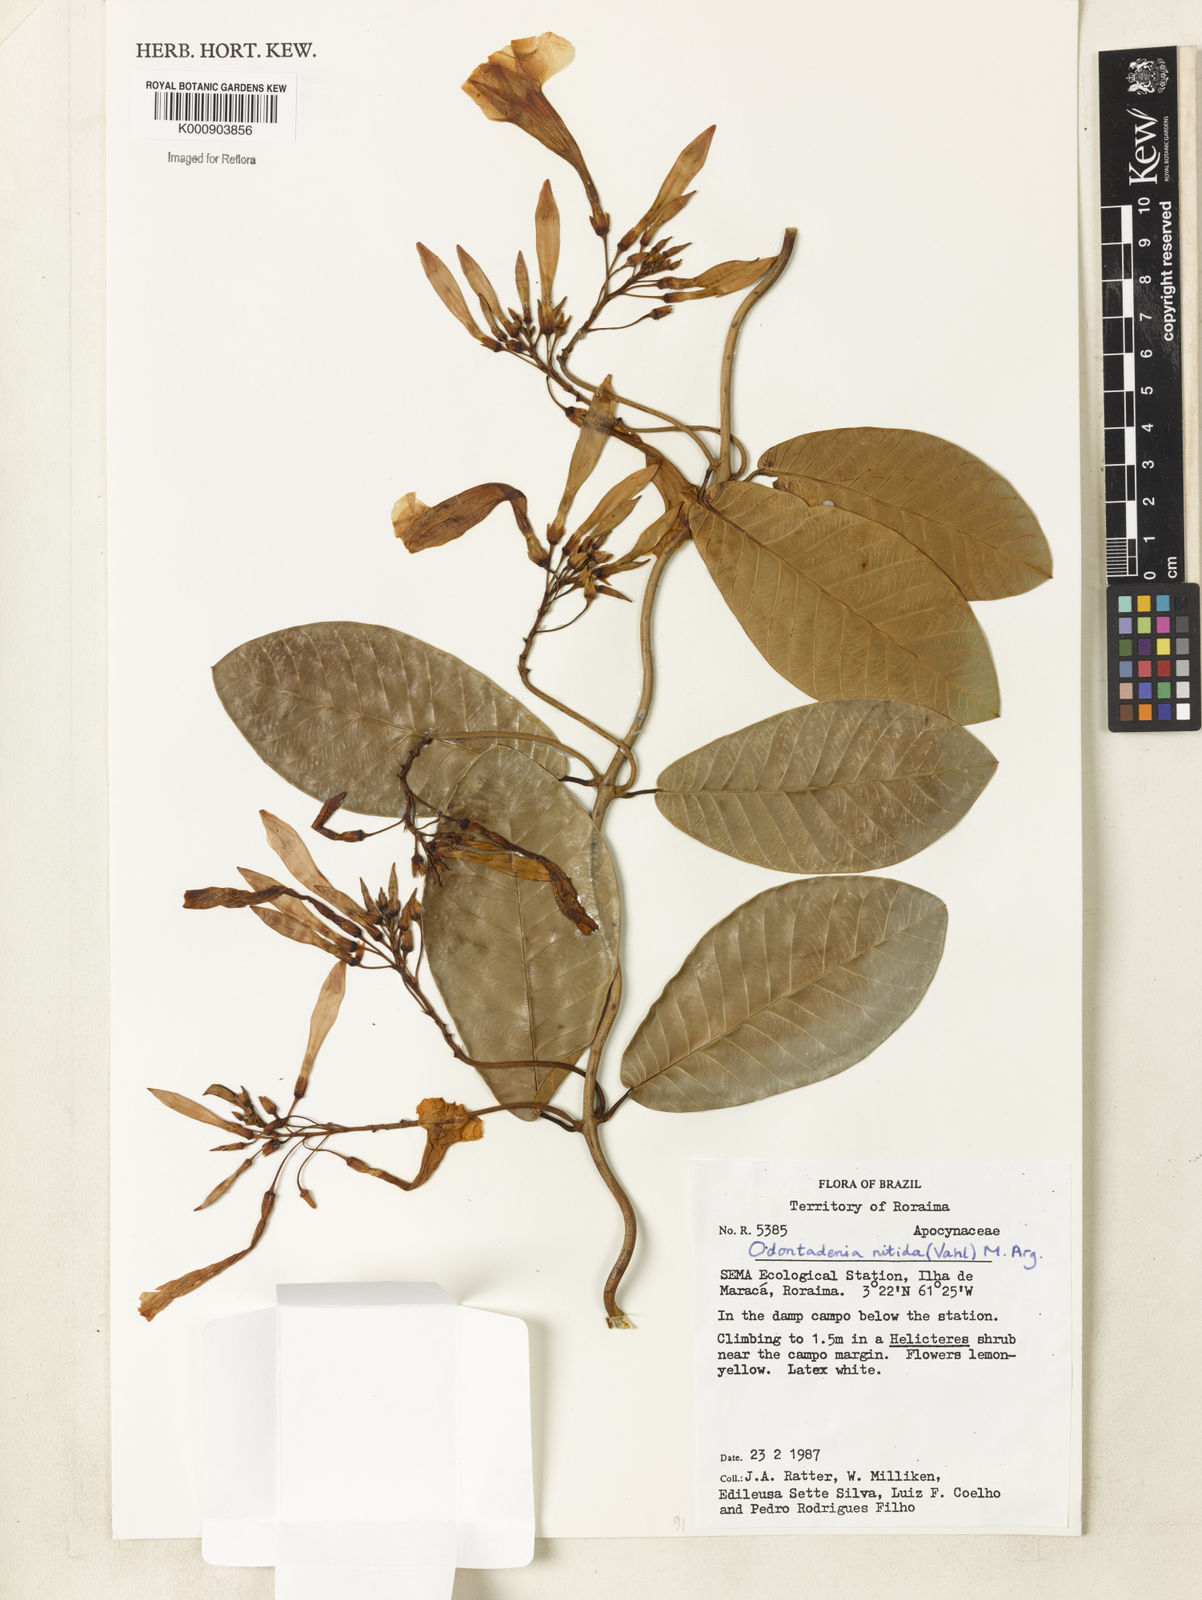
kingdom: Plantae
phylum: Tracheophyta
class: Magnoliopsida
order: Gentianales
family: Apocynaceae
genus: Odontadenia
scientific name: Odontadenia
